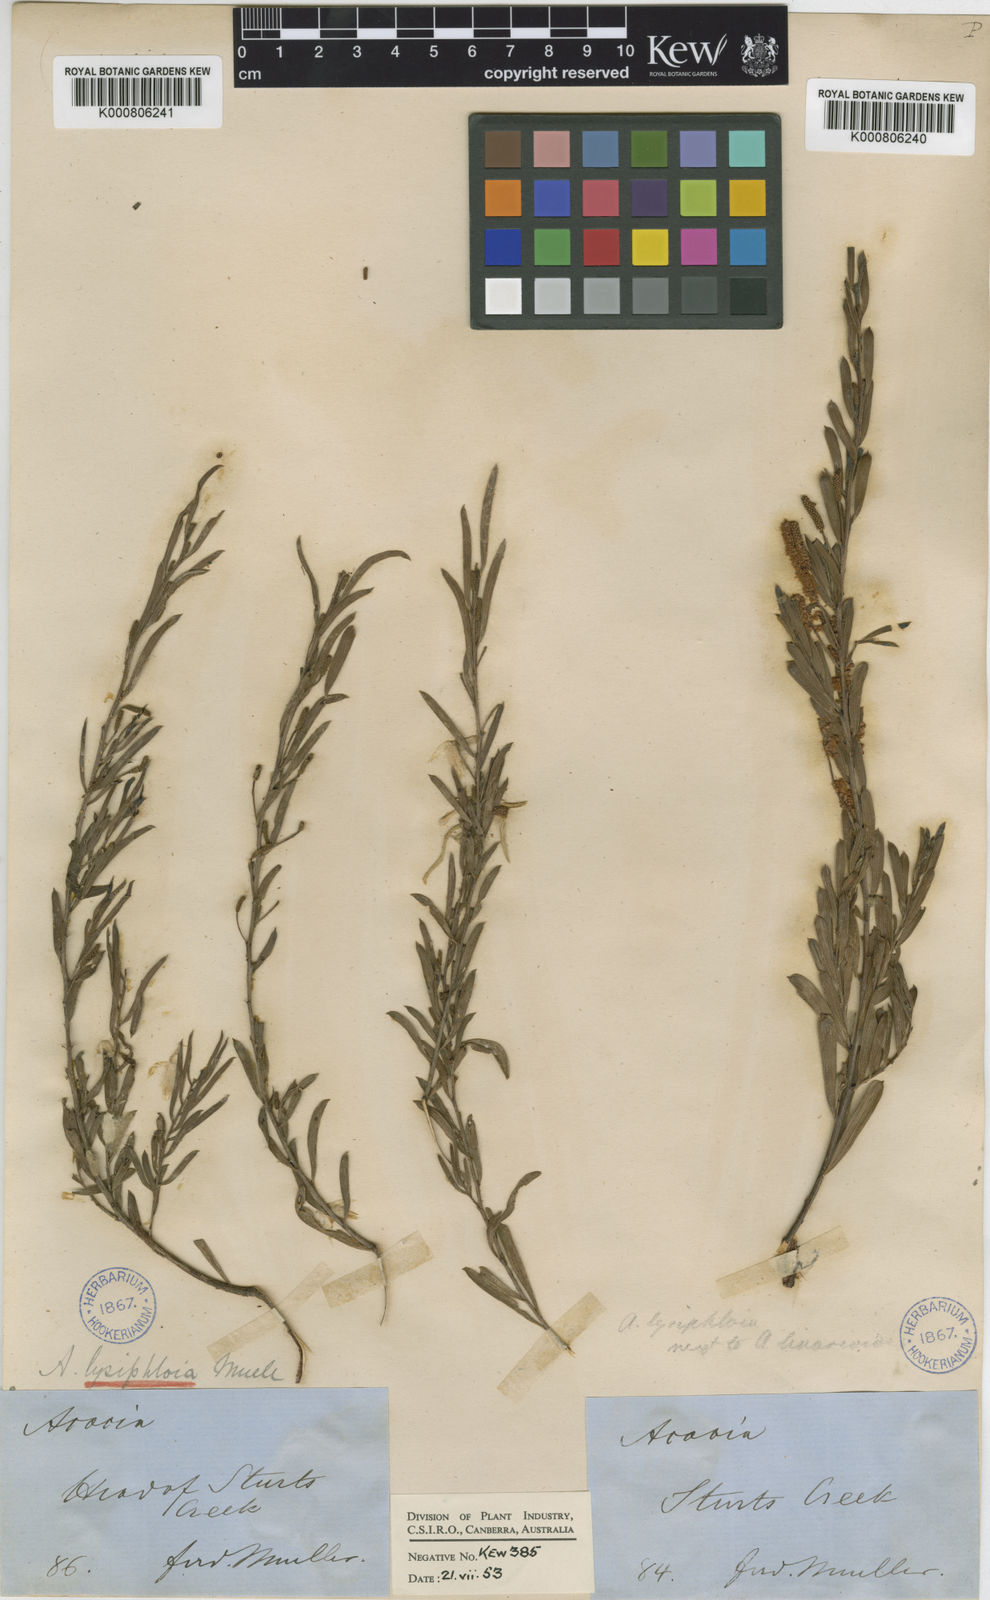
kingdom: Plantae
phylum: Tracheophyta
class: Magnoliopsida
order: Fabales
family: Fabaceae
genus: Acacia
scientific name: Acacia lysiphloia
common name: Acacia
